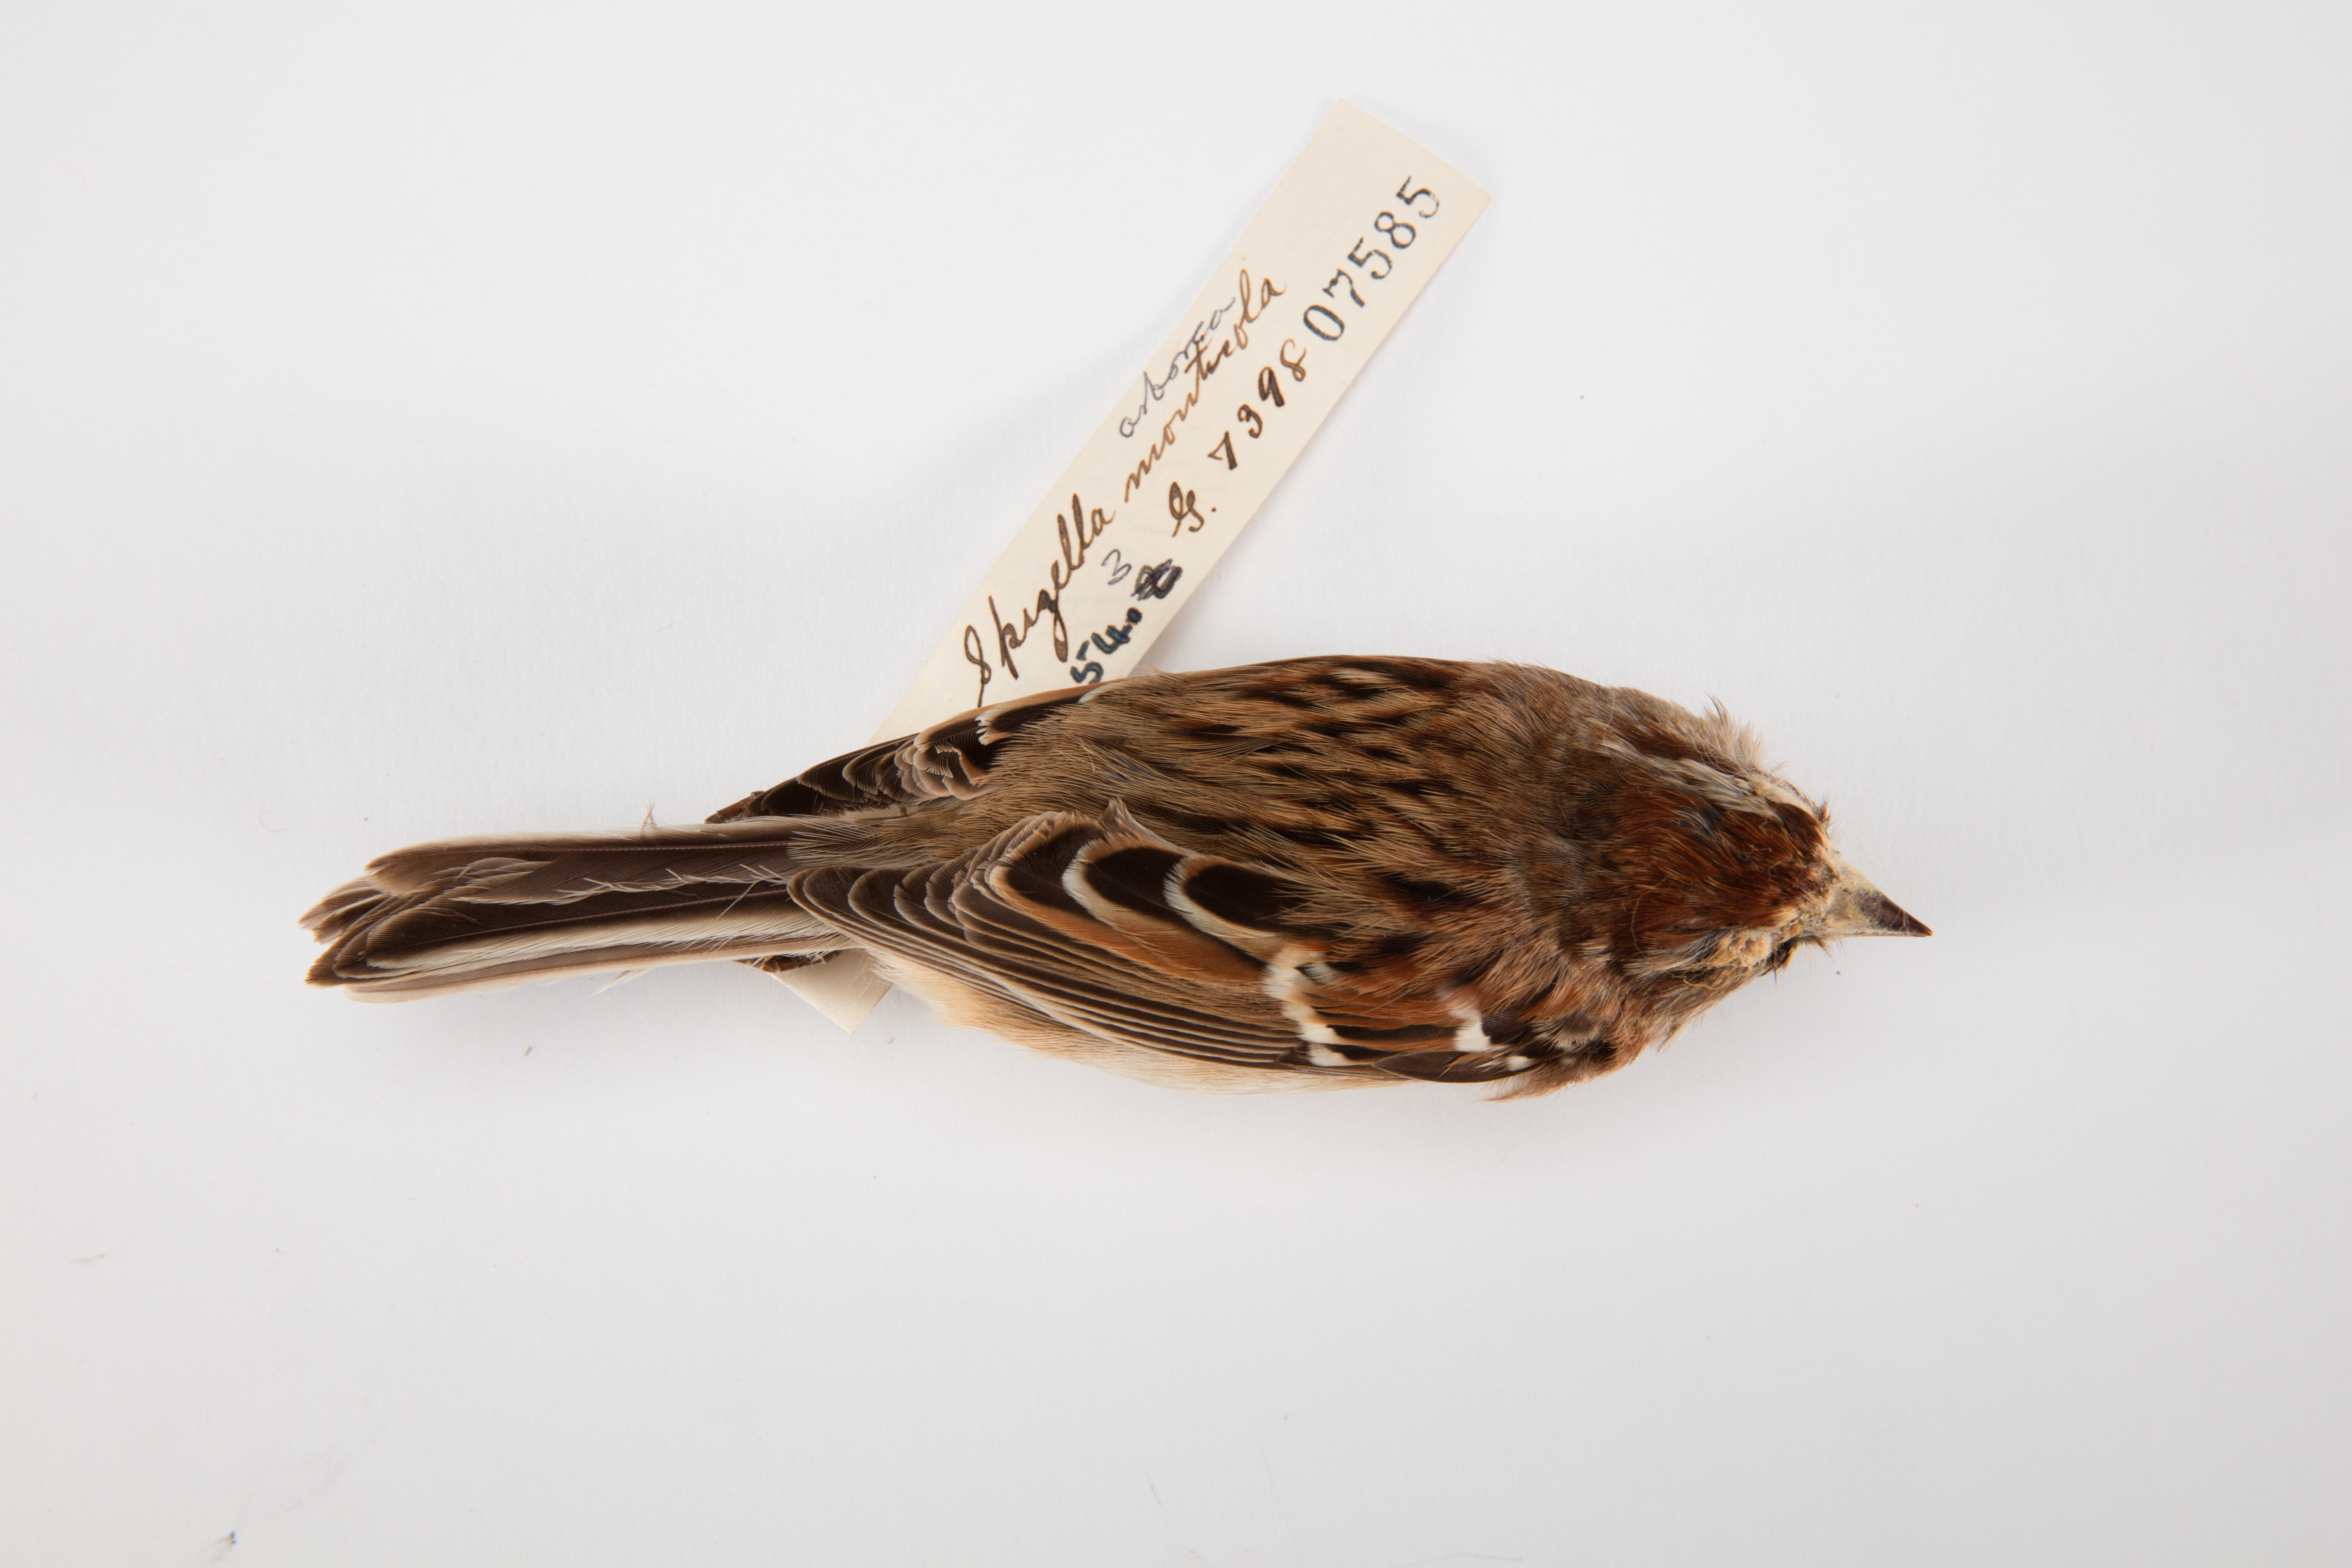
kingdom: Animalia
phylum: Chordata
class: Aves
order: Passeriformes
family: Passerellidae
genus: Spizelloides
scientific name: Spizelloides arborea
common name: American tree sparrow
